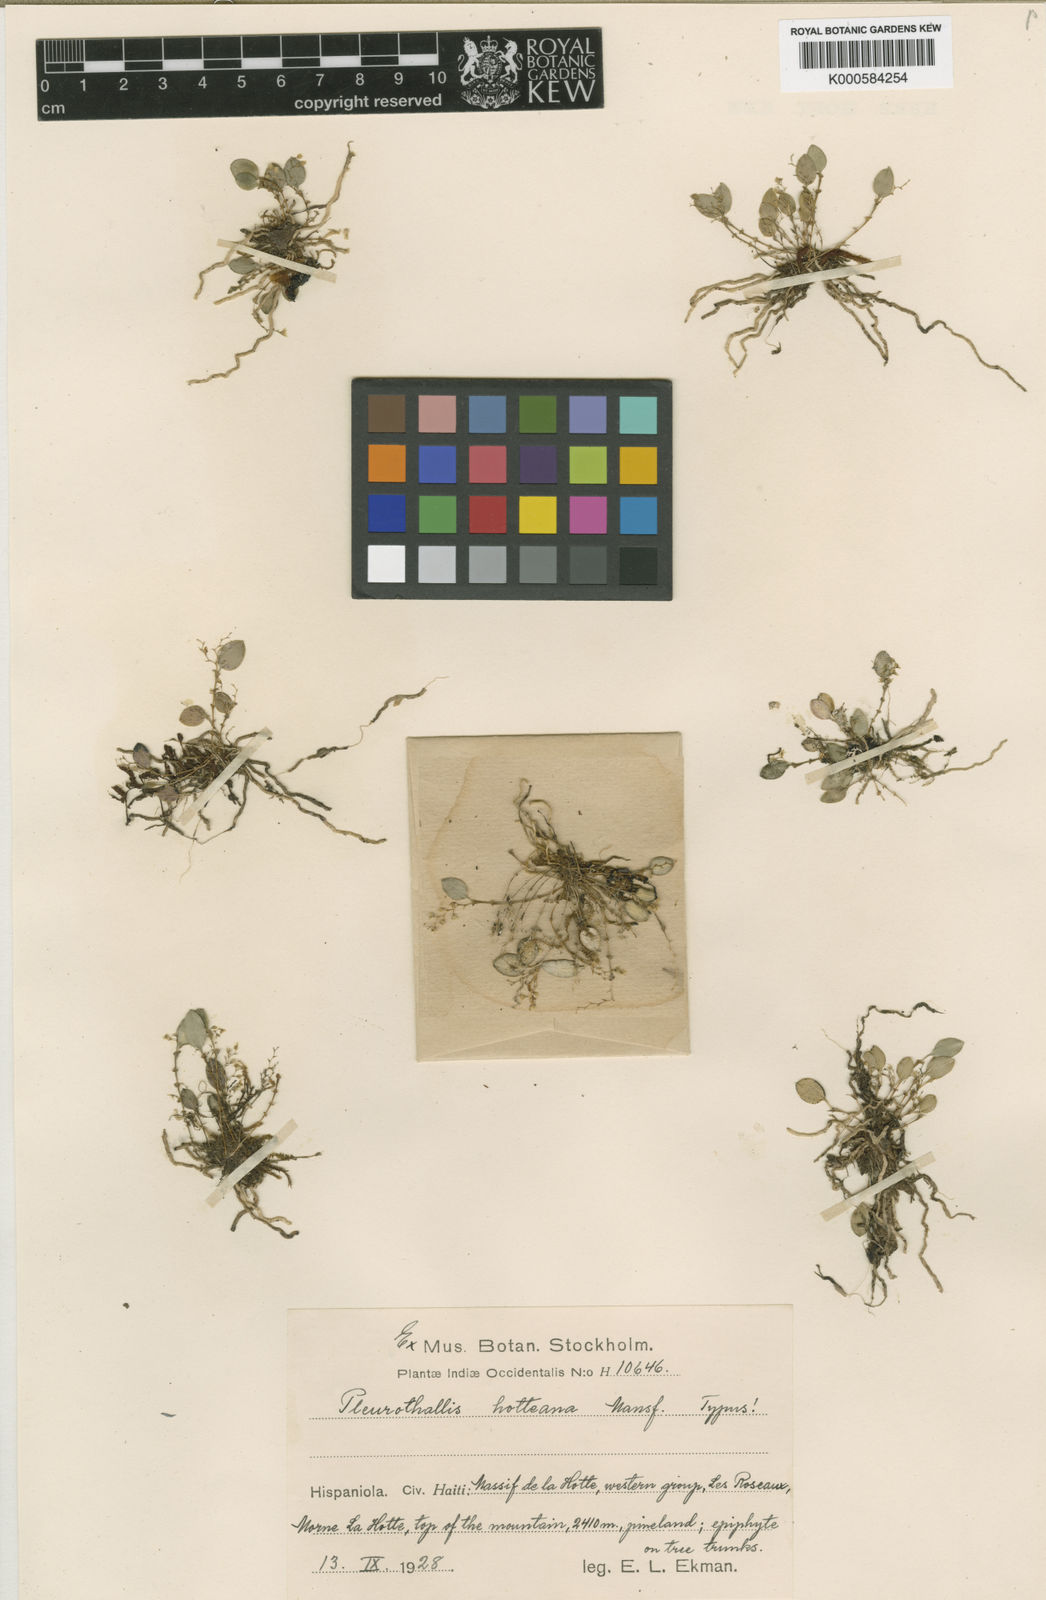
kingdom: Plantae
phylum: Tracheophyta
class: Liliopsida
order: Asparagales
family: Orchidaceae
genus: Lepanthopsis
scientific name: Lepanthopsis hotteana
